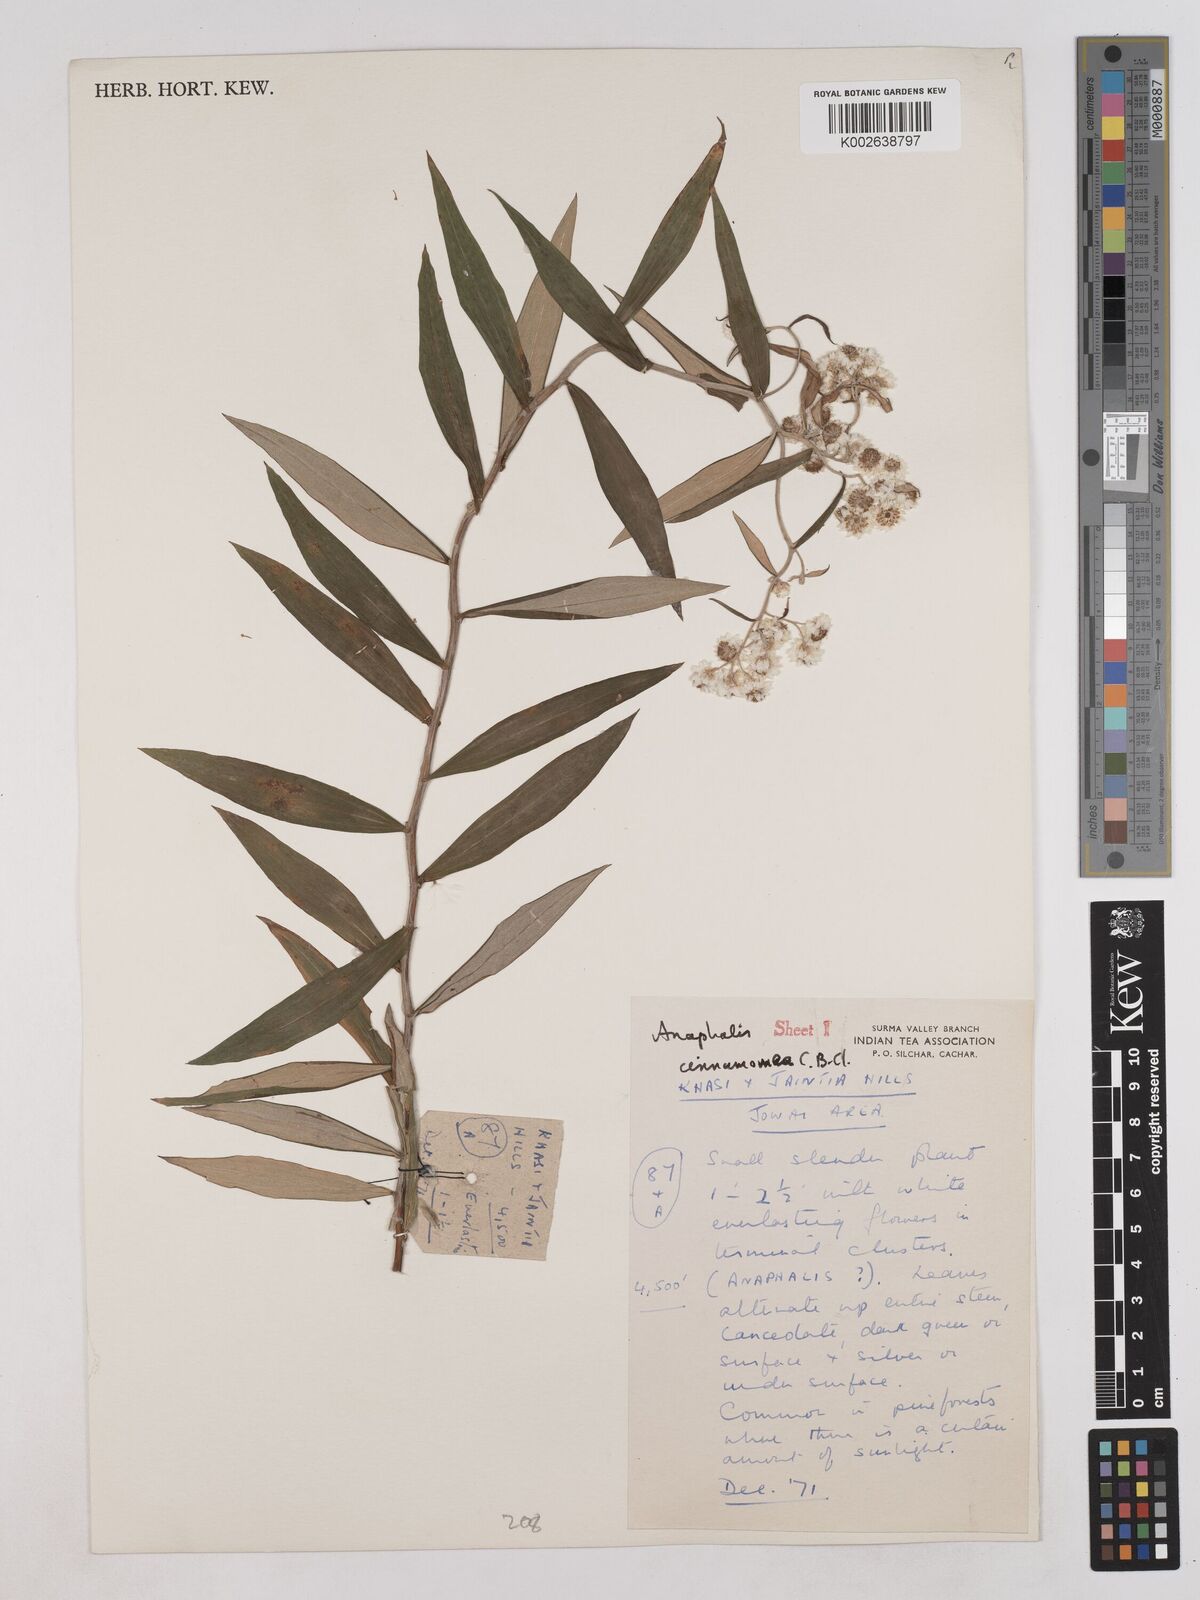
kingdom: Plantae
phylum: Tracheophyta
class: Magnoliopsida
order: Asterales
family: Asteraceae
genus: Anaphalis
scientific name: Anaphalis marcescens
